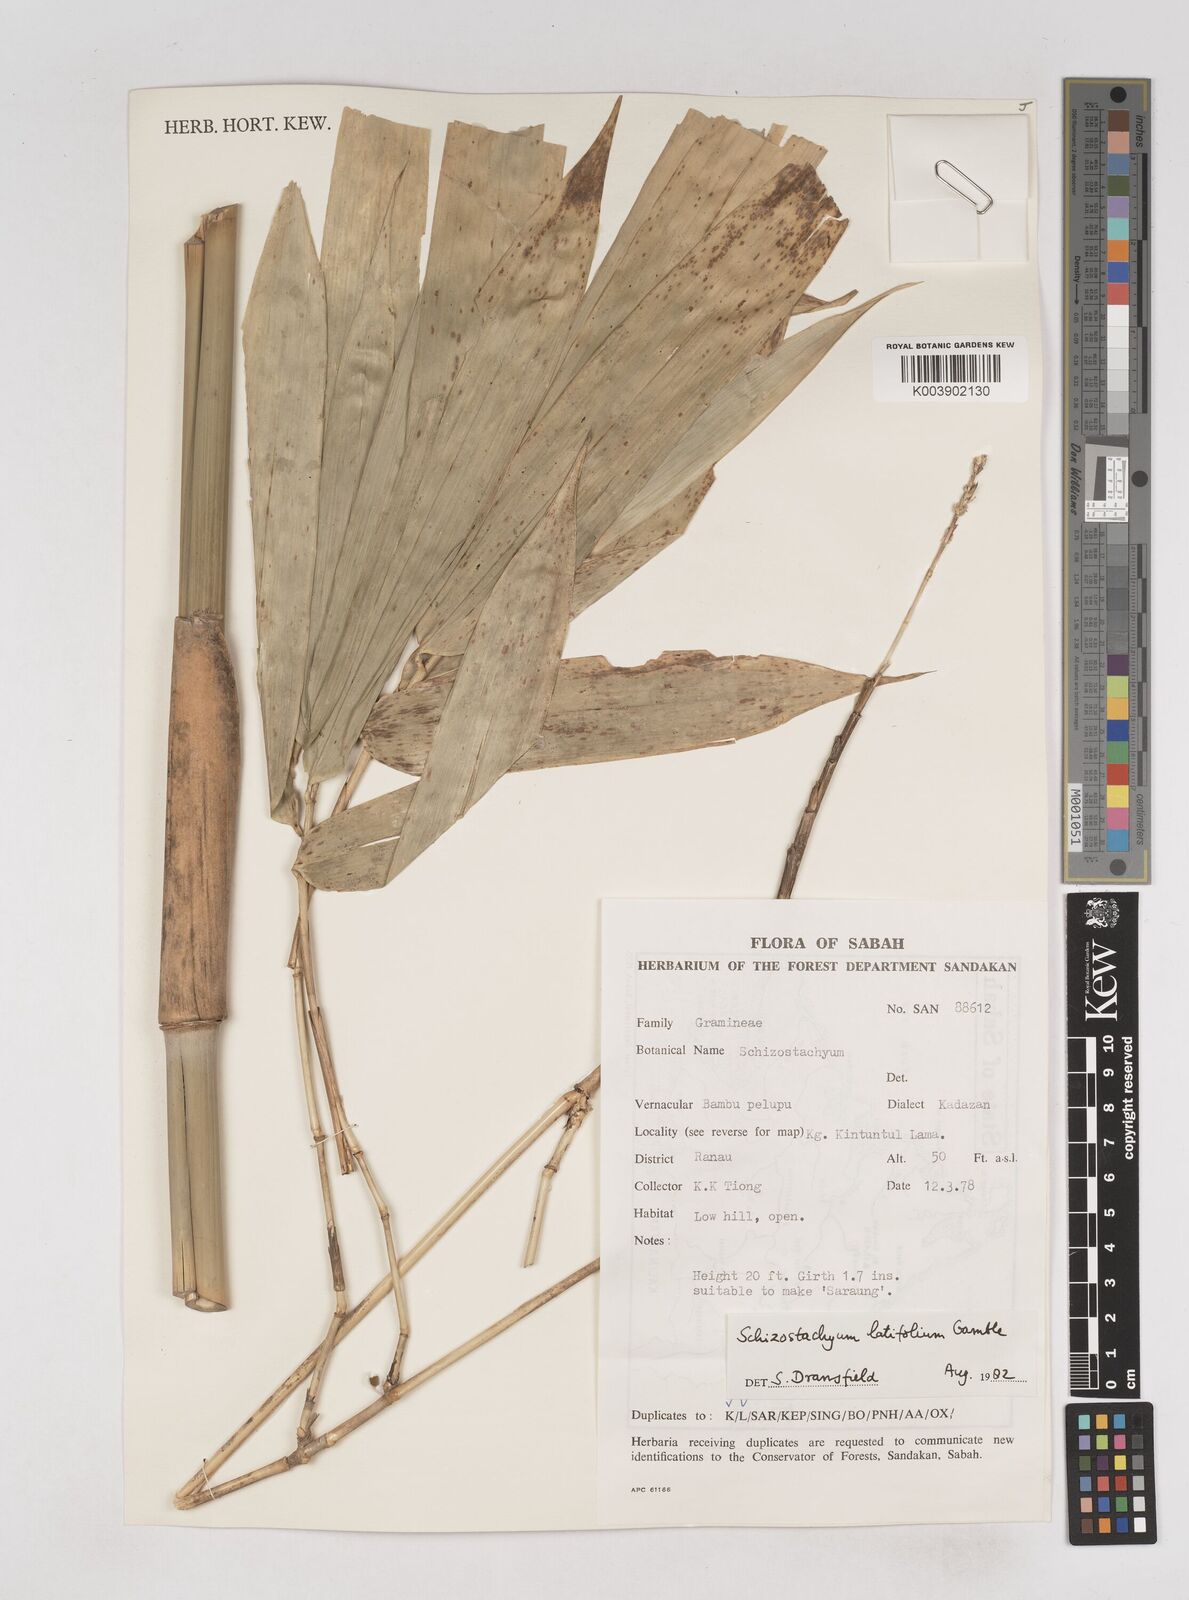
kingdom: Plantae
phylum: Tracheophyta
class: Liliopsida
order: Poales
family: Poaceae
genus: Schizostachyum
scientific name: Schizostachyum
